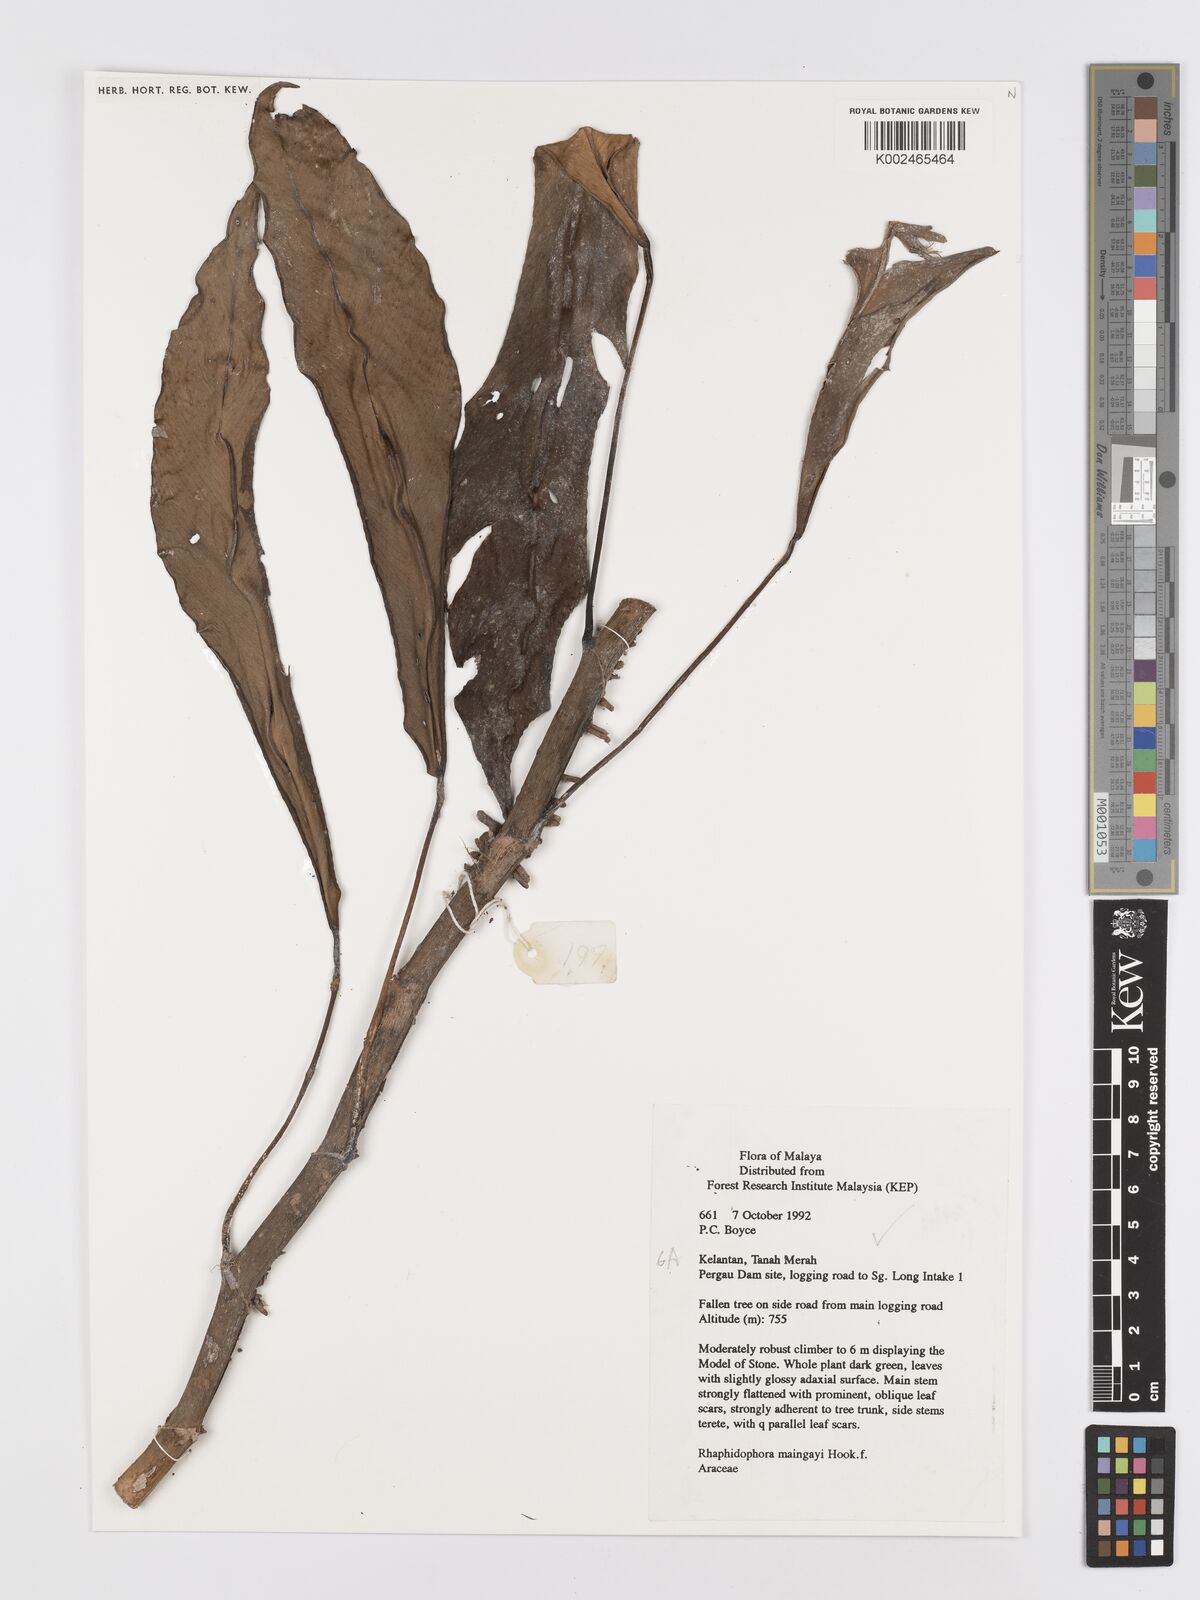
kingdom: Plantae
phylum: Tracheophyta
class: Liliopsida
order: Alismatales
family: Araceae
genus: Rhaphidophora
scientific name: Rhaphidophora maingayi
